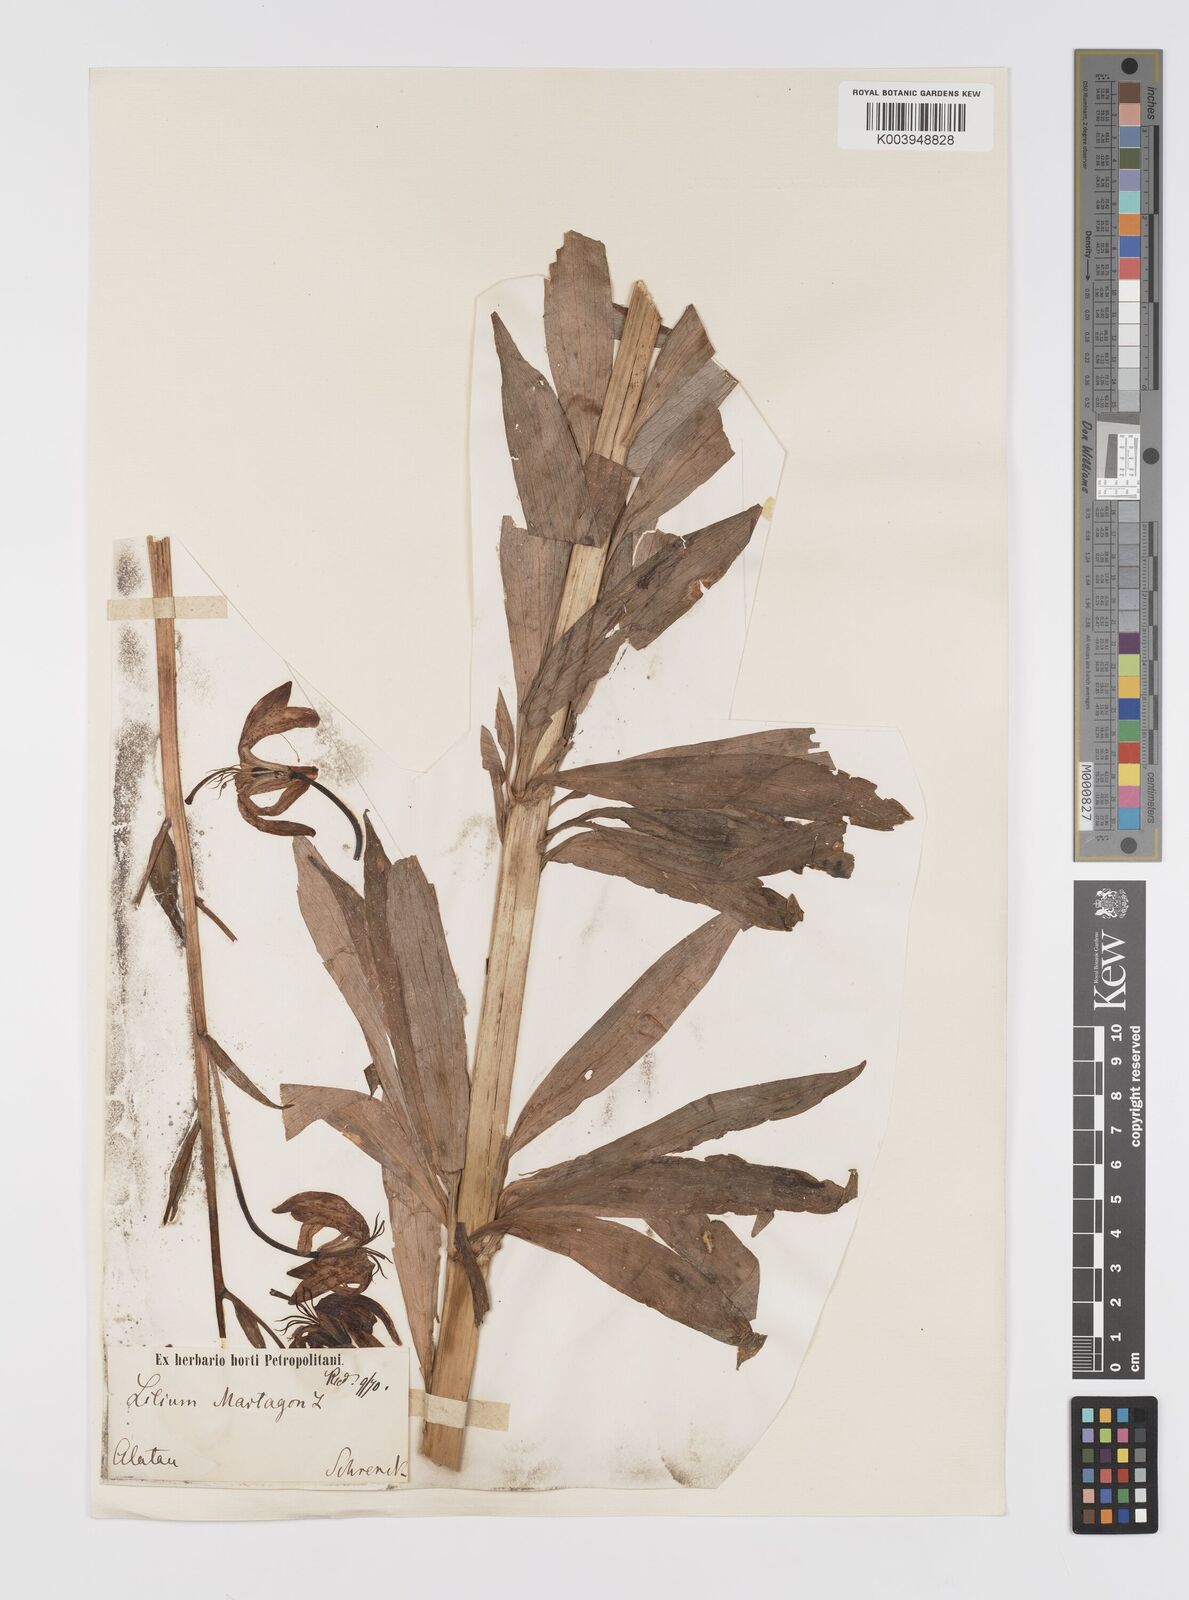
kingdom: Plantae
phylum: Tracheophyta
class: Liliopsida
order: Liliales
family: Liliaceae
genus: Lilium
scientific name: Lilium martagon
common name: Martagon lily
